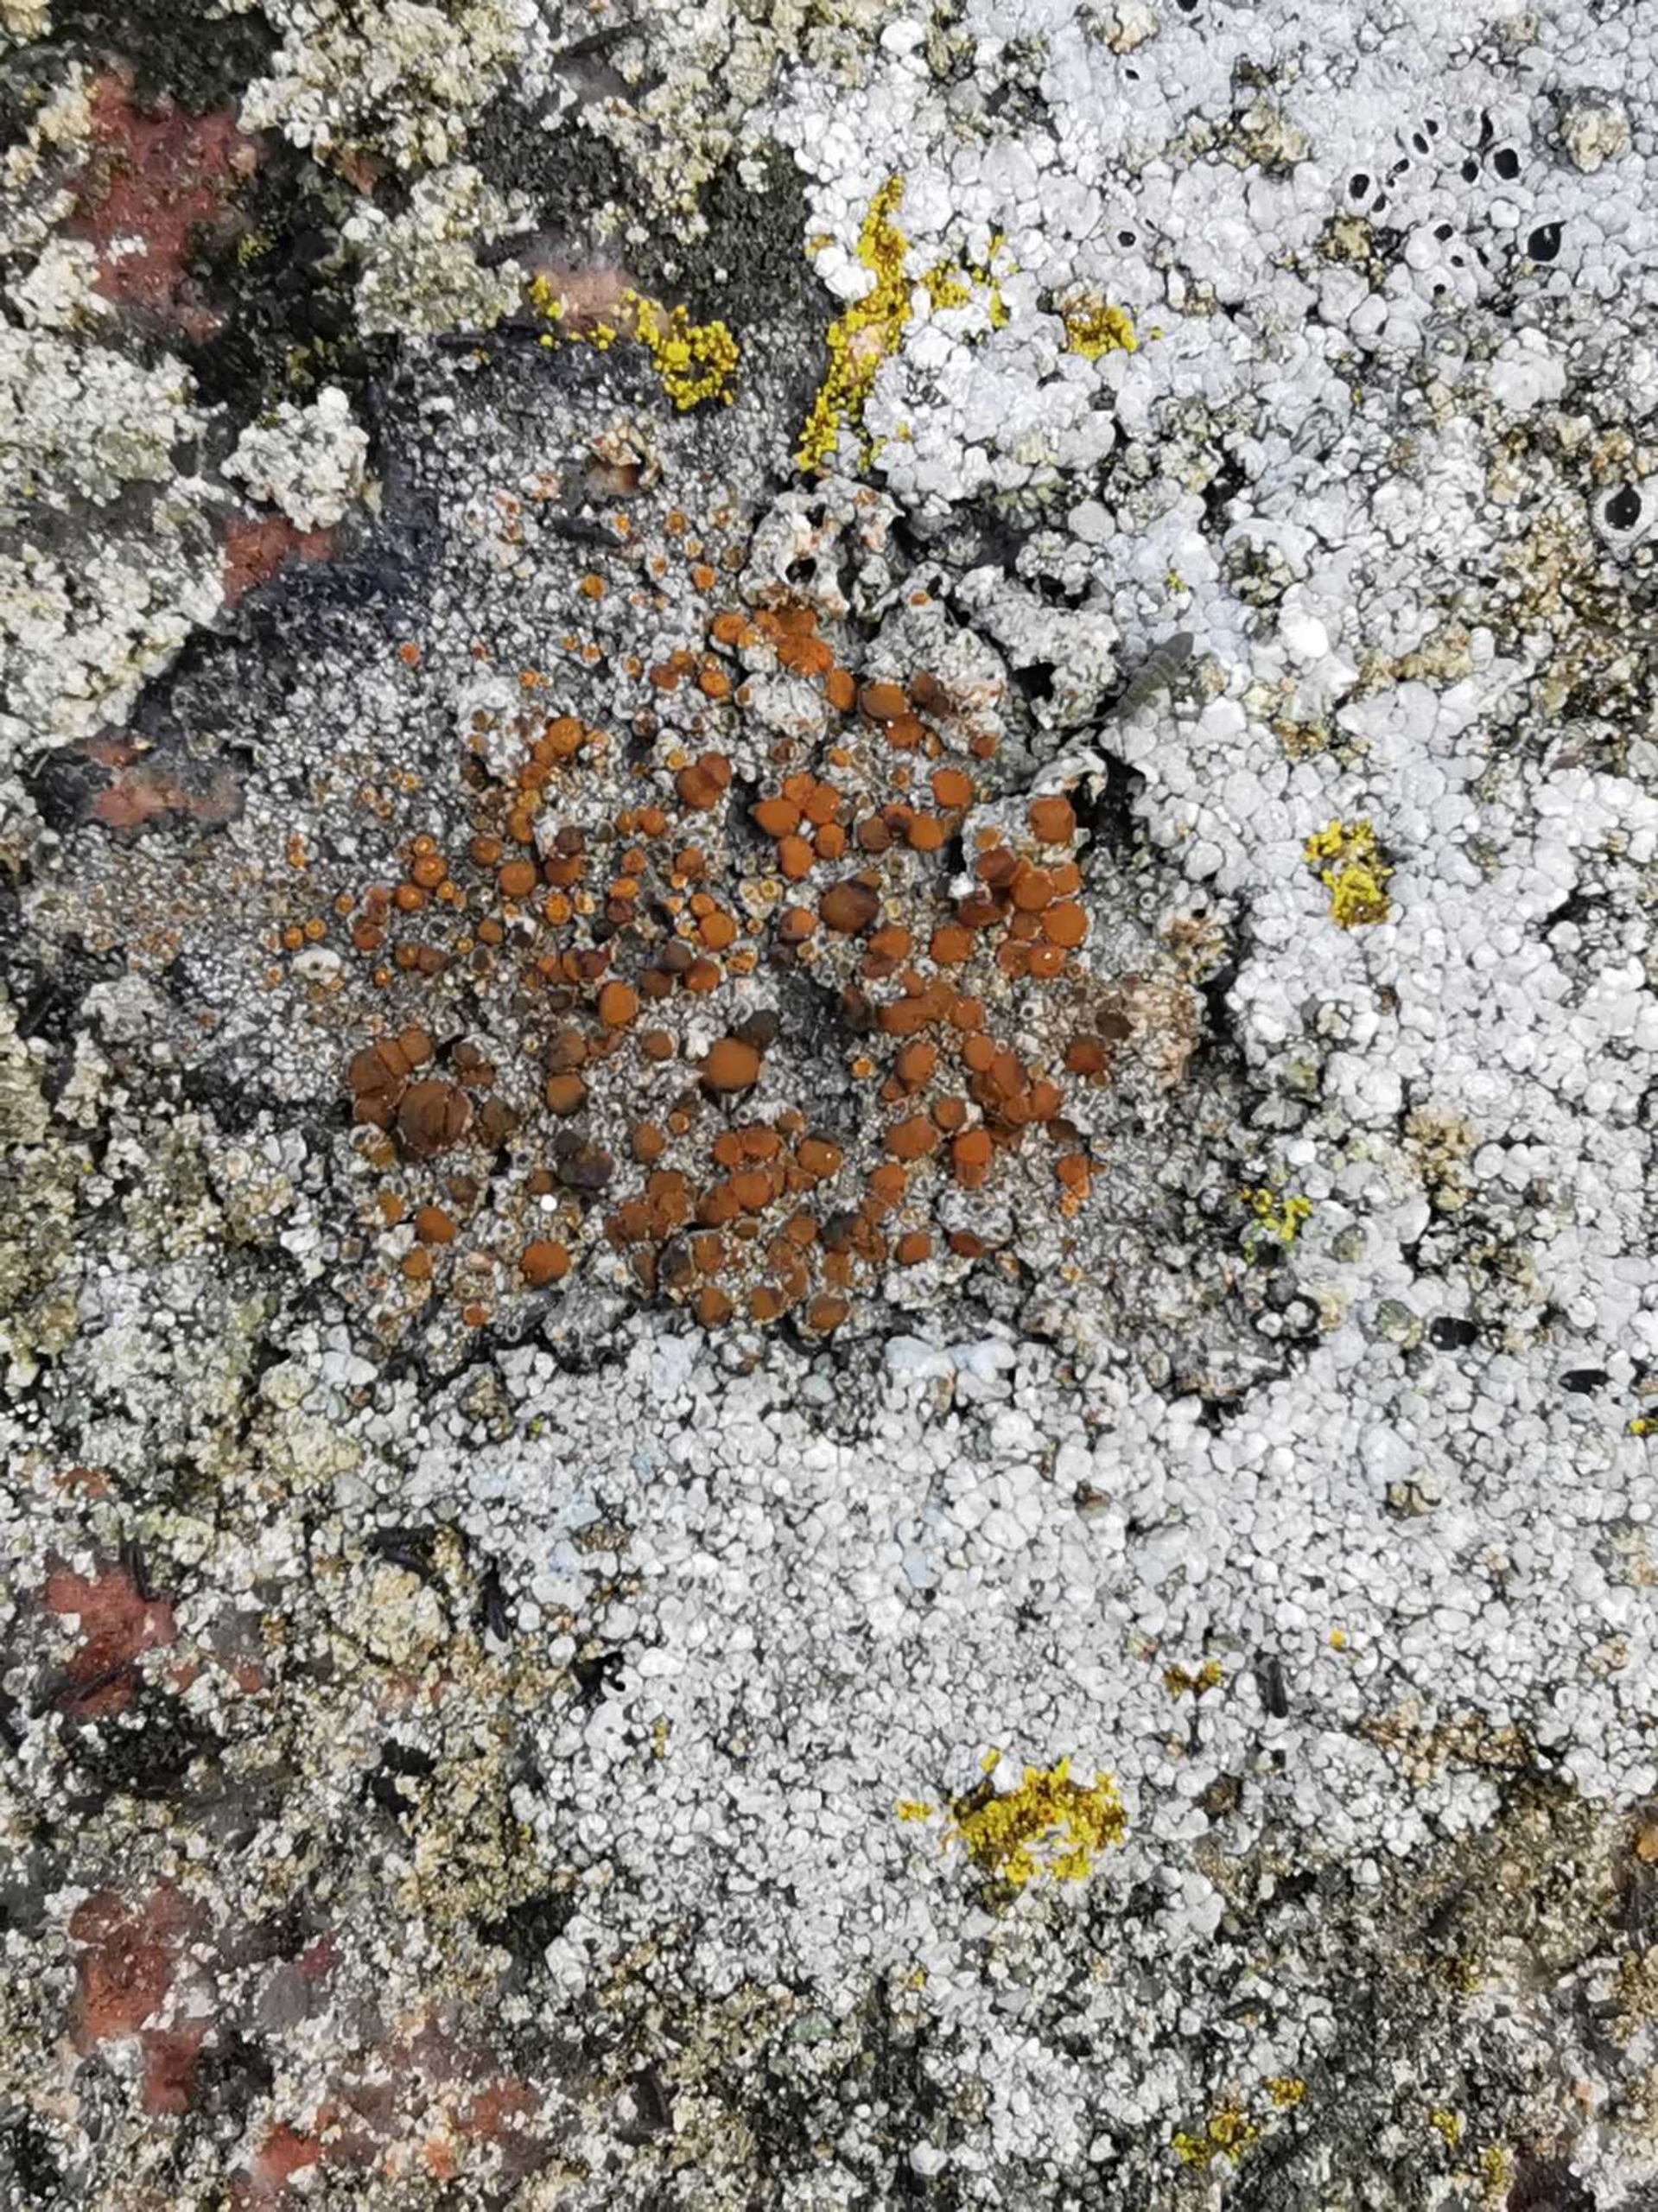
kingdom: Fungi
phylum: Ascomycota
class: Lecanoromycetes
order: Teloschistales
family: Teloschistaceae
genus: Blastenia
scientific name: Blastenia crenularia
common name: Pyntelig orangelav
